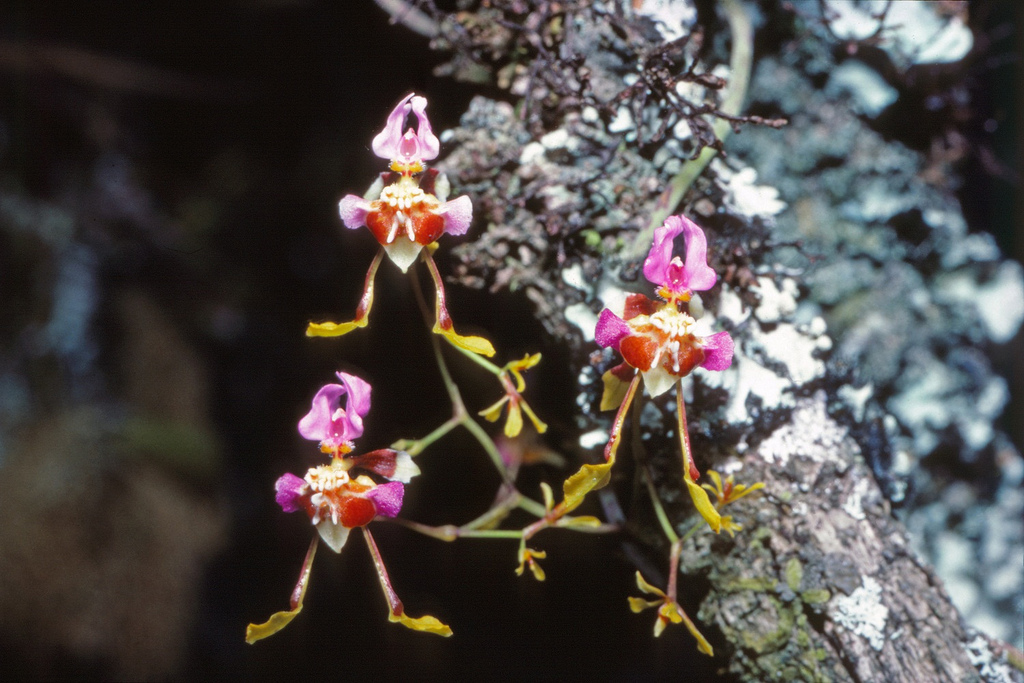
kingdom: Plantae
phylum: Tracheophyta
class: Liliopsida
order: Asparagales
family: Orchidaceae
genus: Oncidium
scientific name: Oncidium ionopterum
